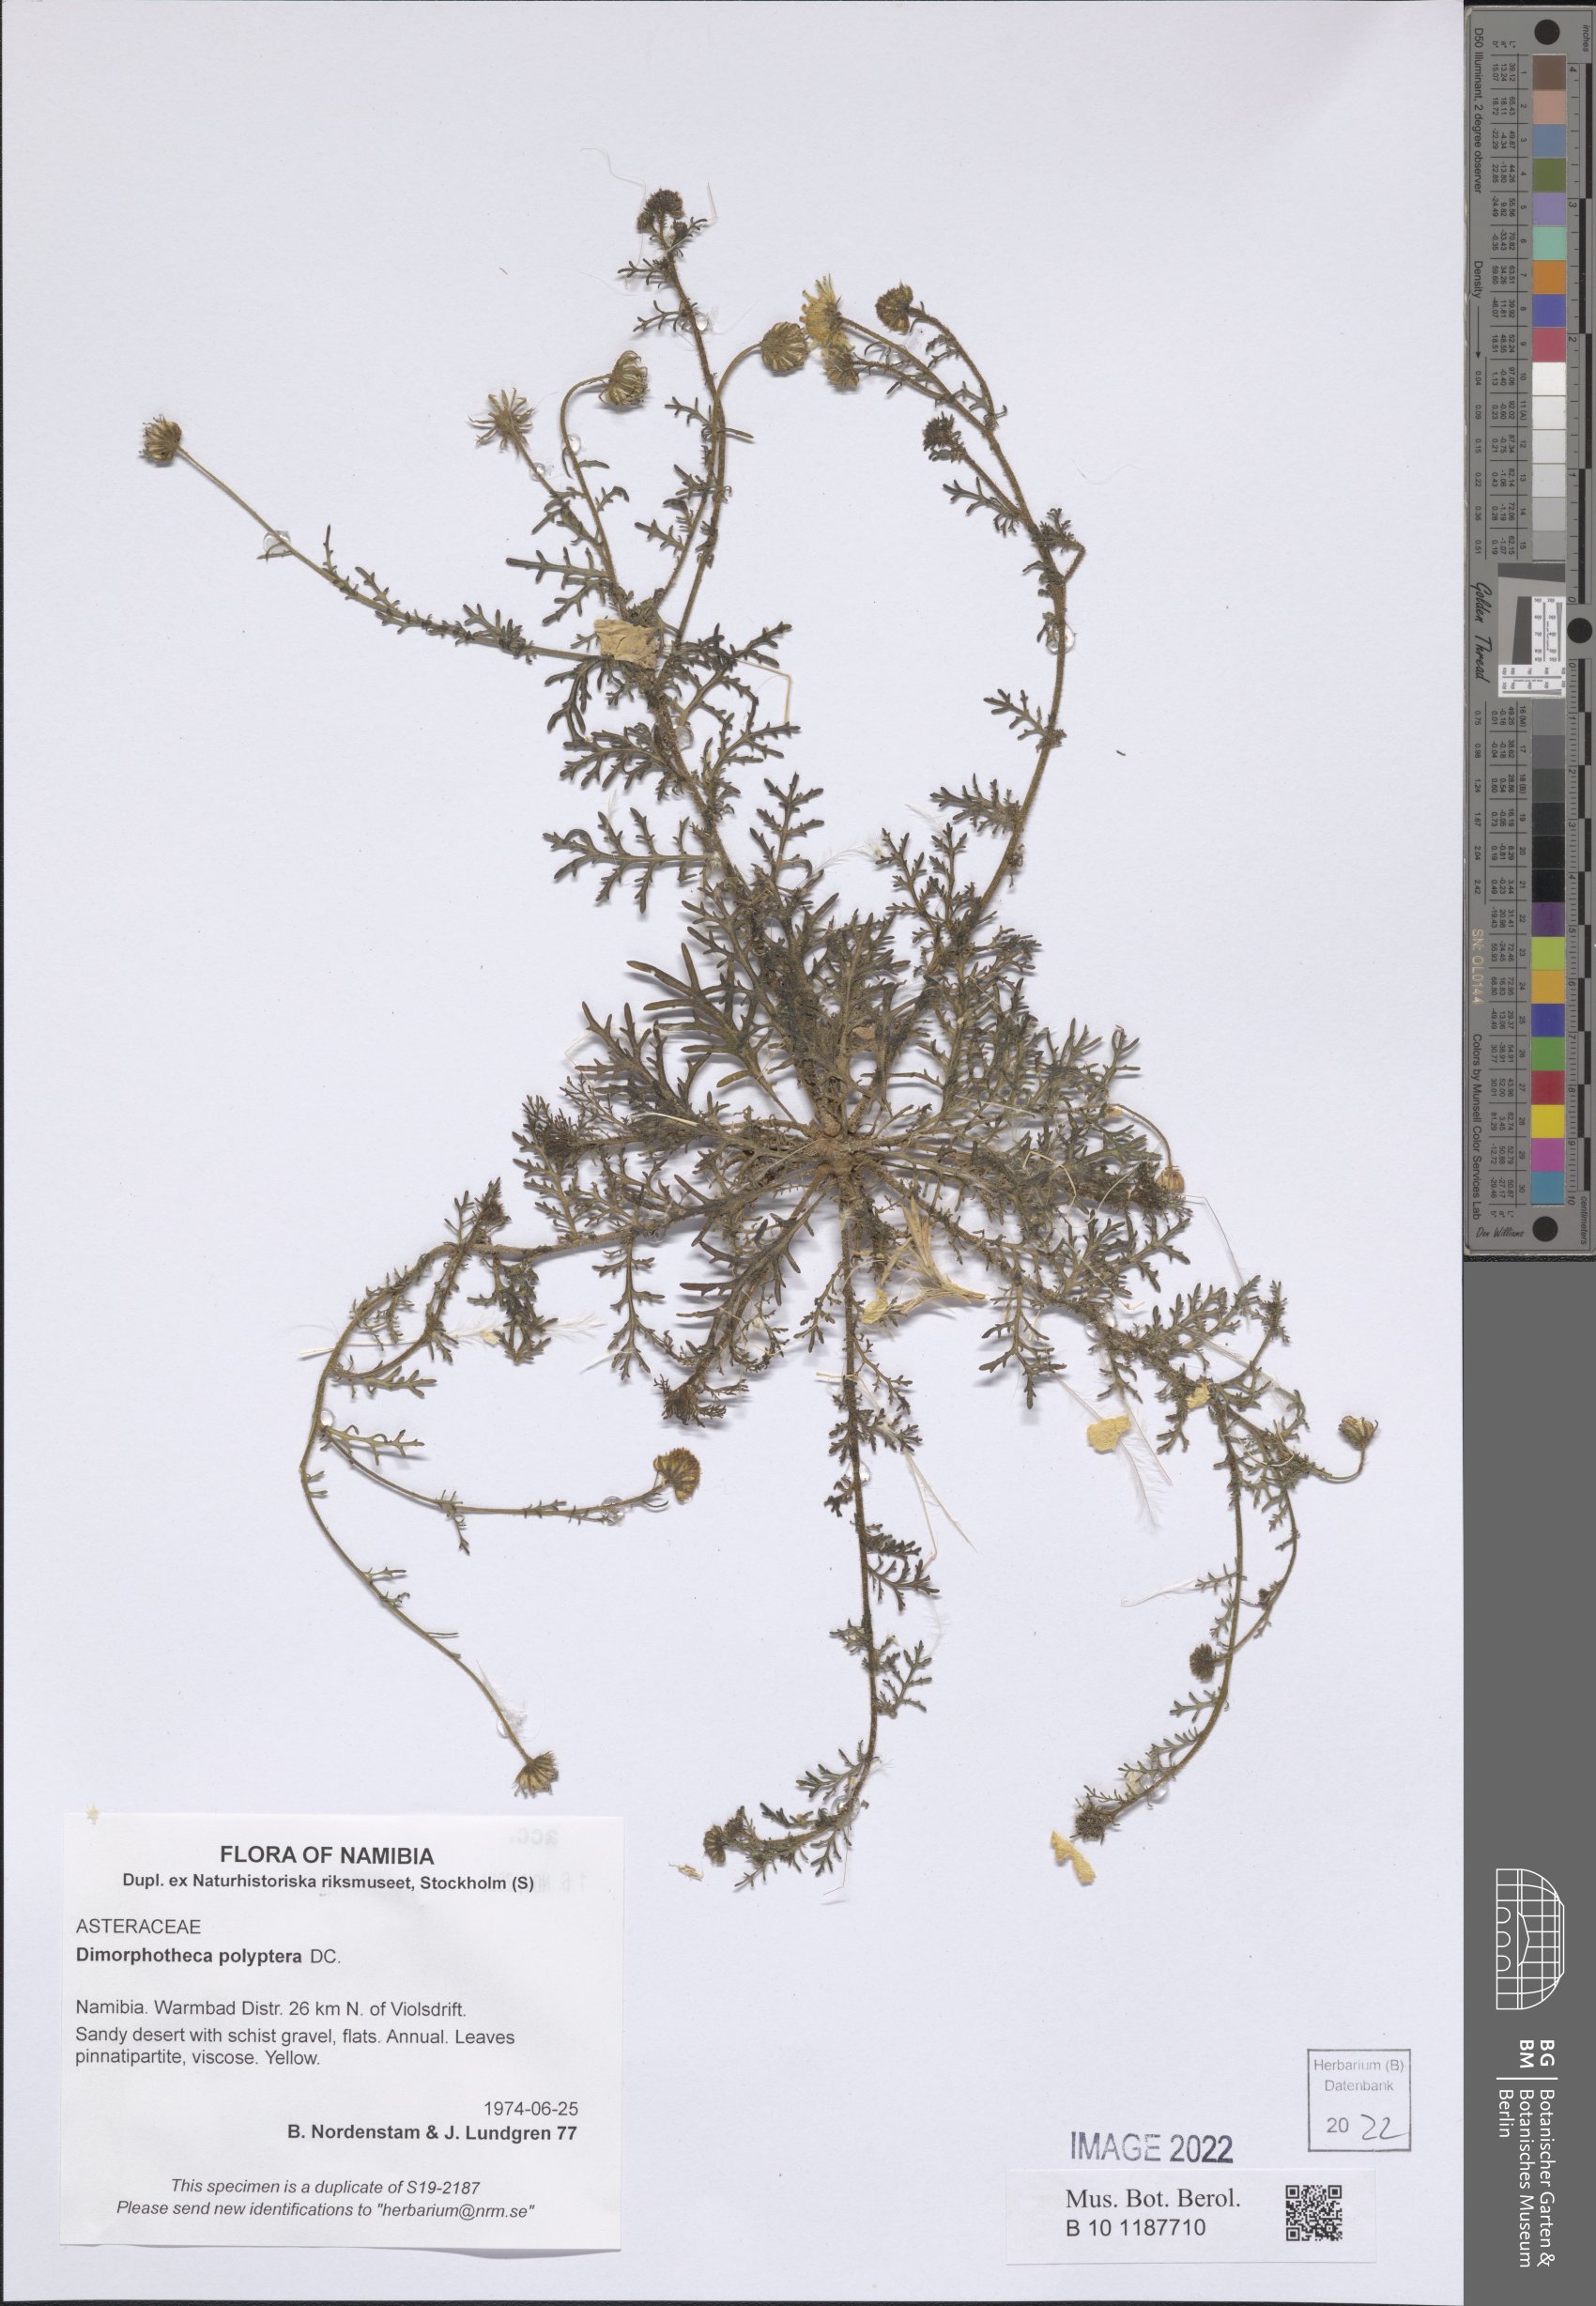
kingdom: Plantae
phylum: Tracheophyta
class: Magnoliopsida
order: Asterales
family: Asteraceae
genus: Osteospermum
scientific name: Osteospermum polypterum
